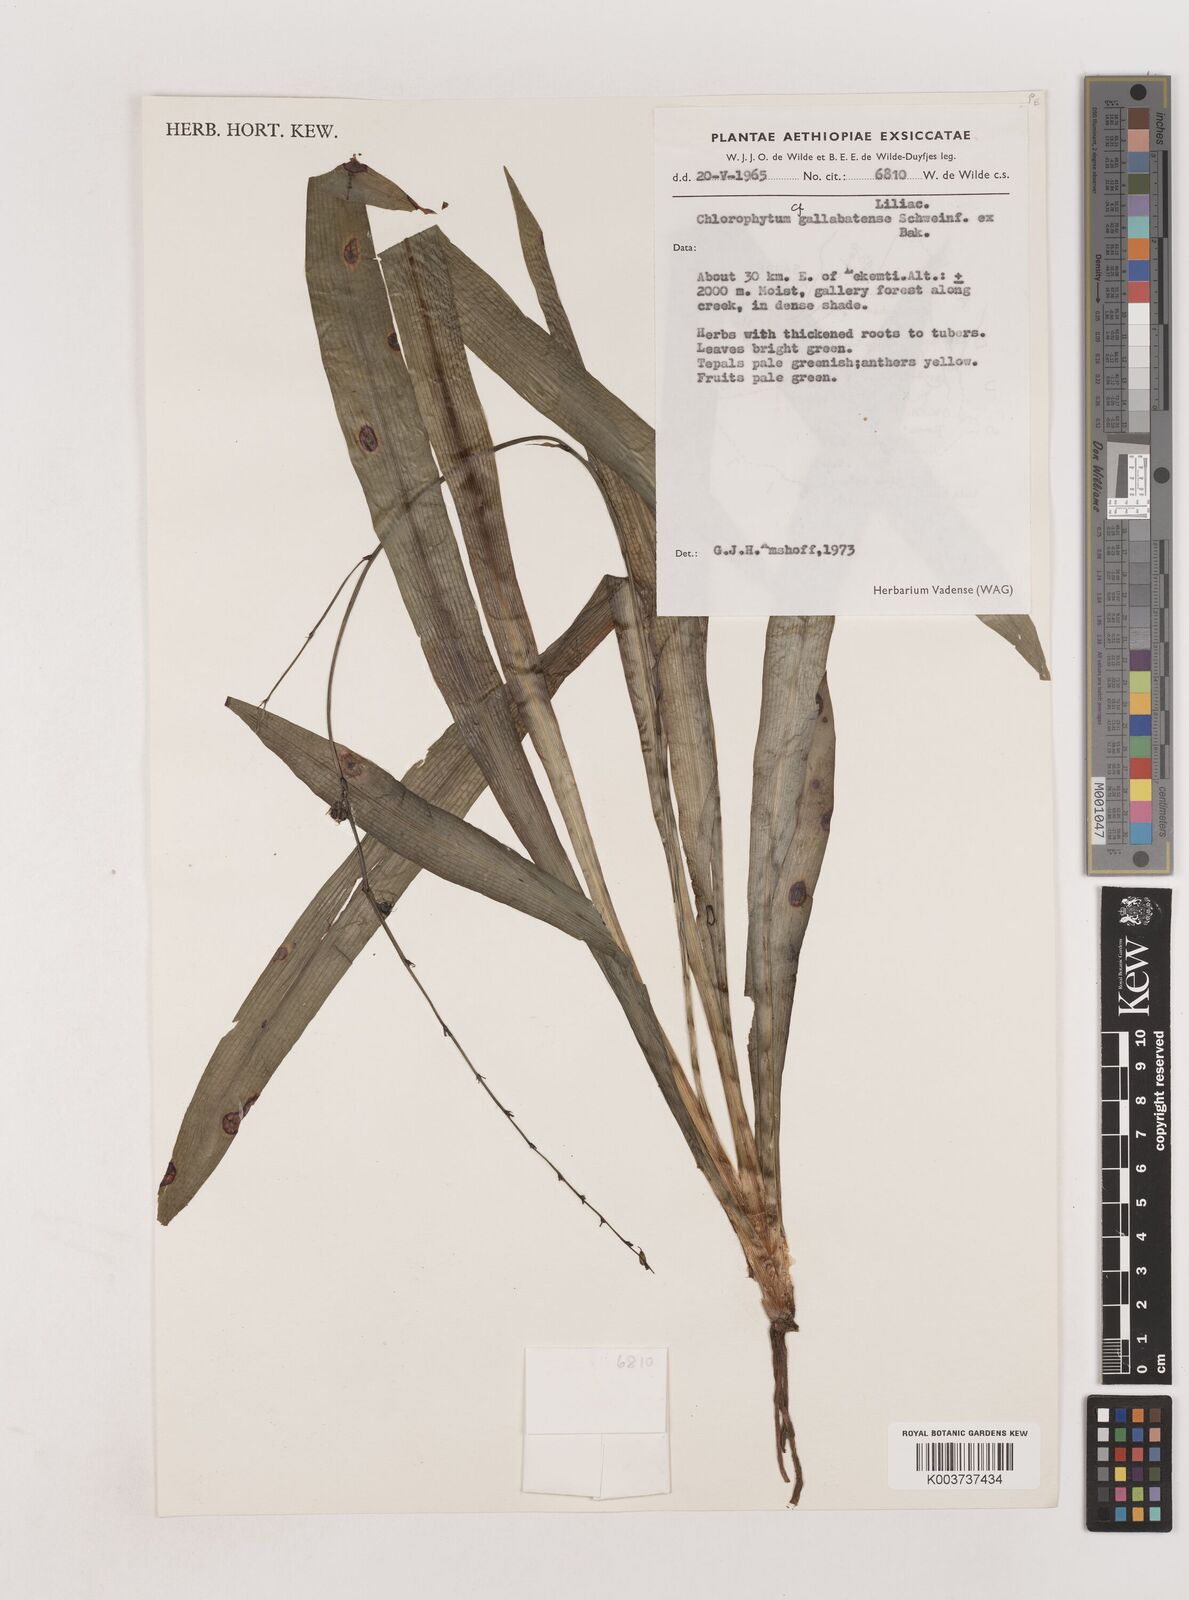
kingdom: Plantae
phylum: Tracheophyta
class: Liliopsida
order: Asparagales
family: Asparagaceae
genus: Chlorophytum
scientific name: Chlorophytum gallabatense
